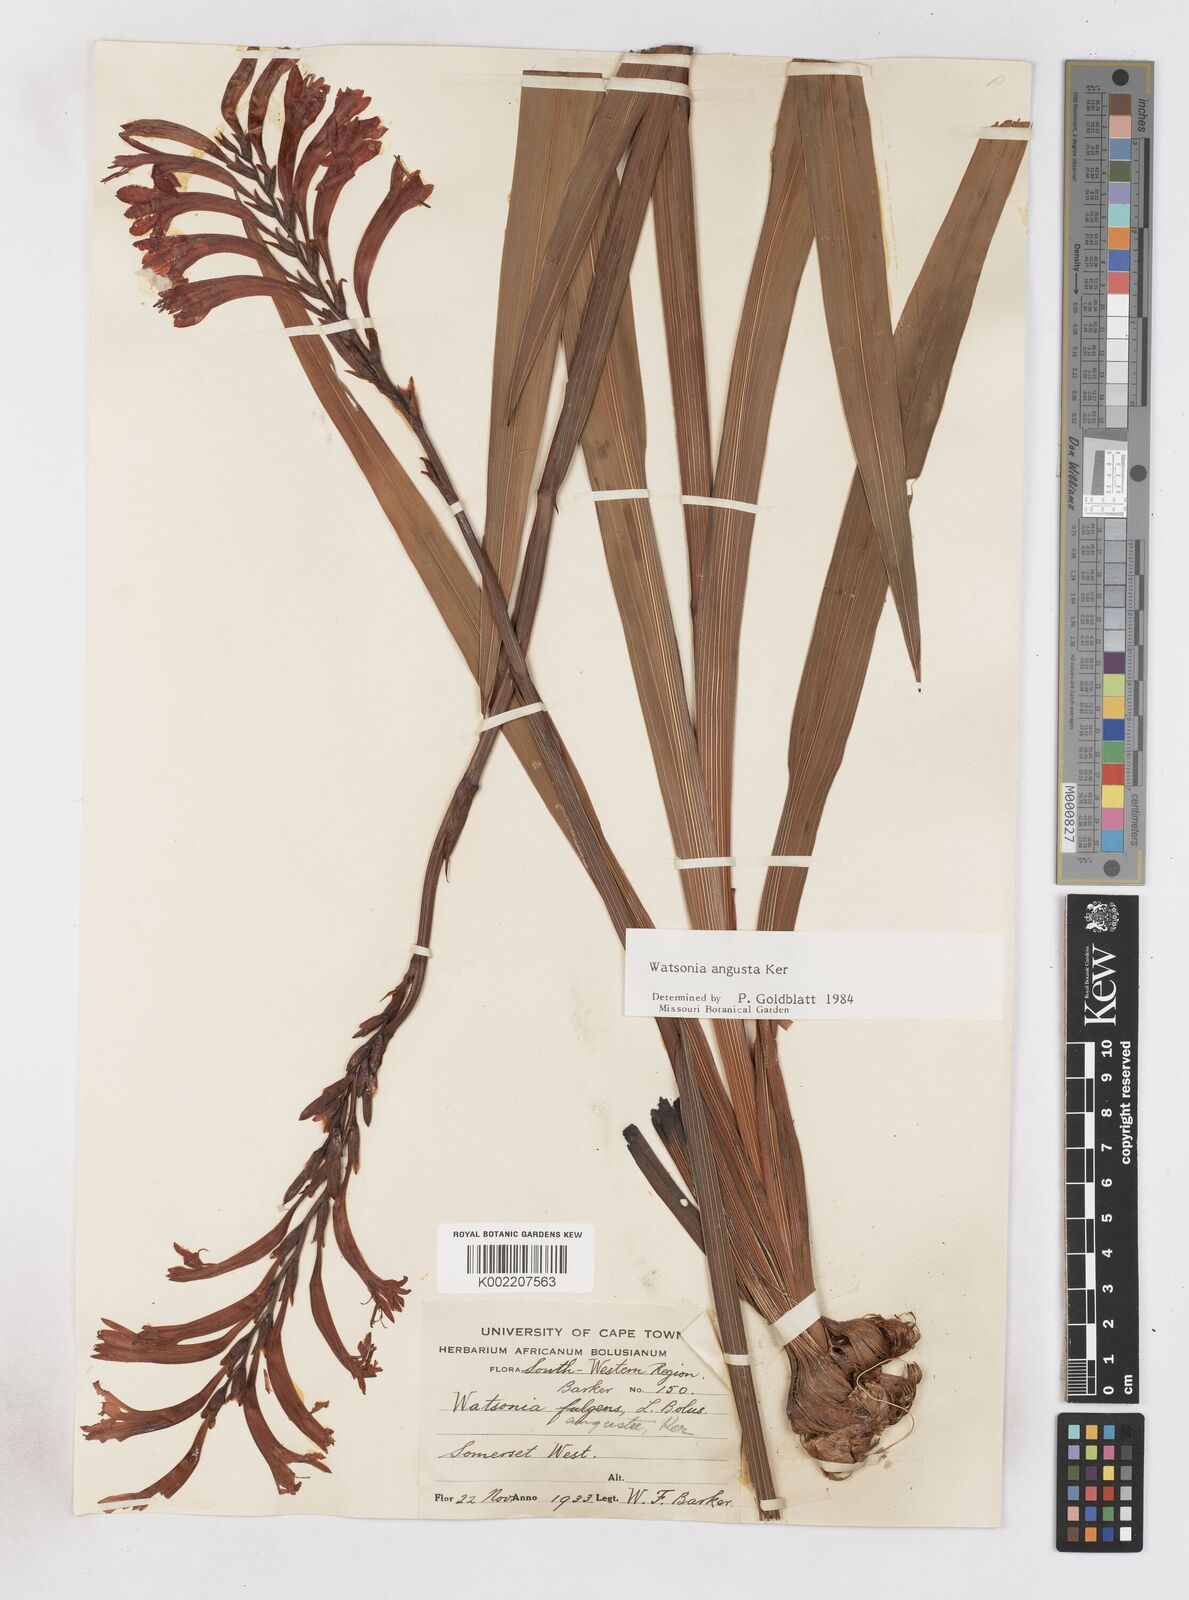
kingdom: Plantae
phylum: Tracheophyta
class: Liliopsida
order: Asparagales
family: Iridaceae
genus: Watsonia
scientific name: Watsonia angusta
